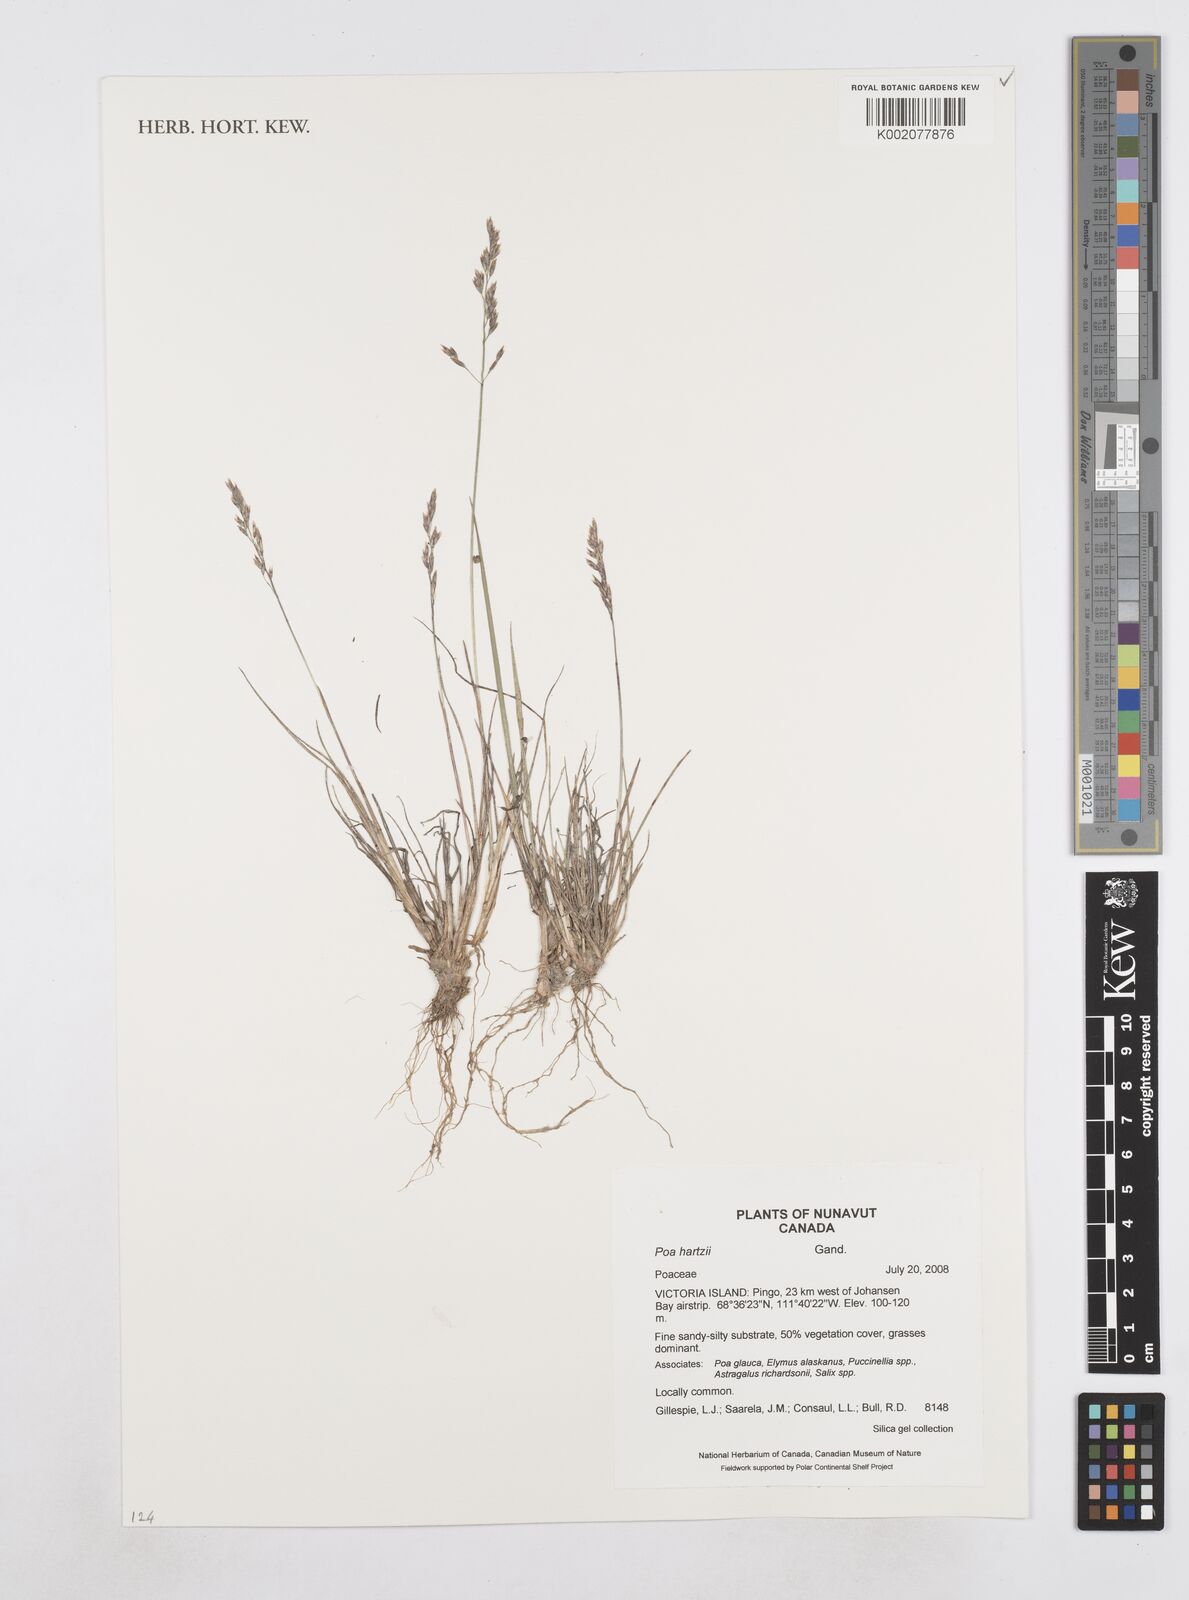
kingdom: Plantae
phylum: Tracheophyta
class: Liliopsida
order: Poales
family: Poaceae
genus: Poa
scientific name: Poa hartzii
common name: Hartz's bluegrass
